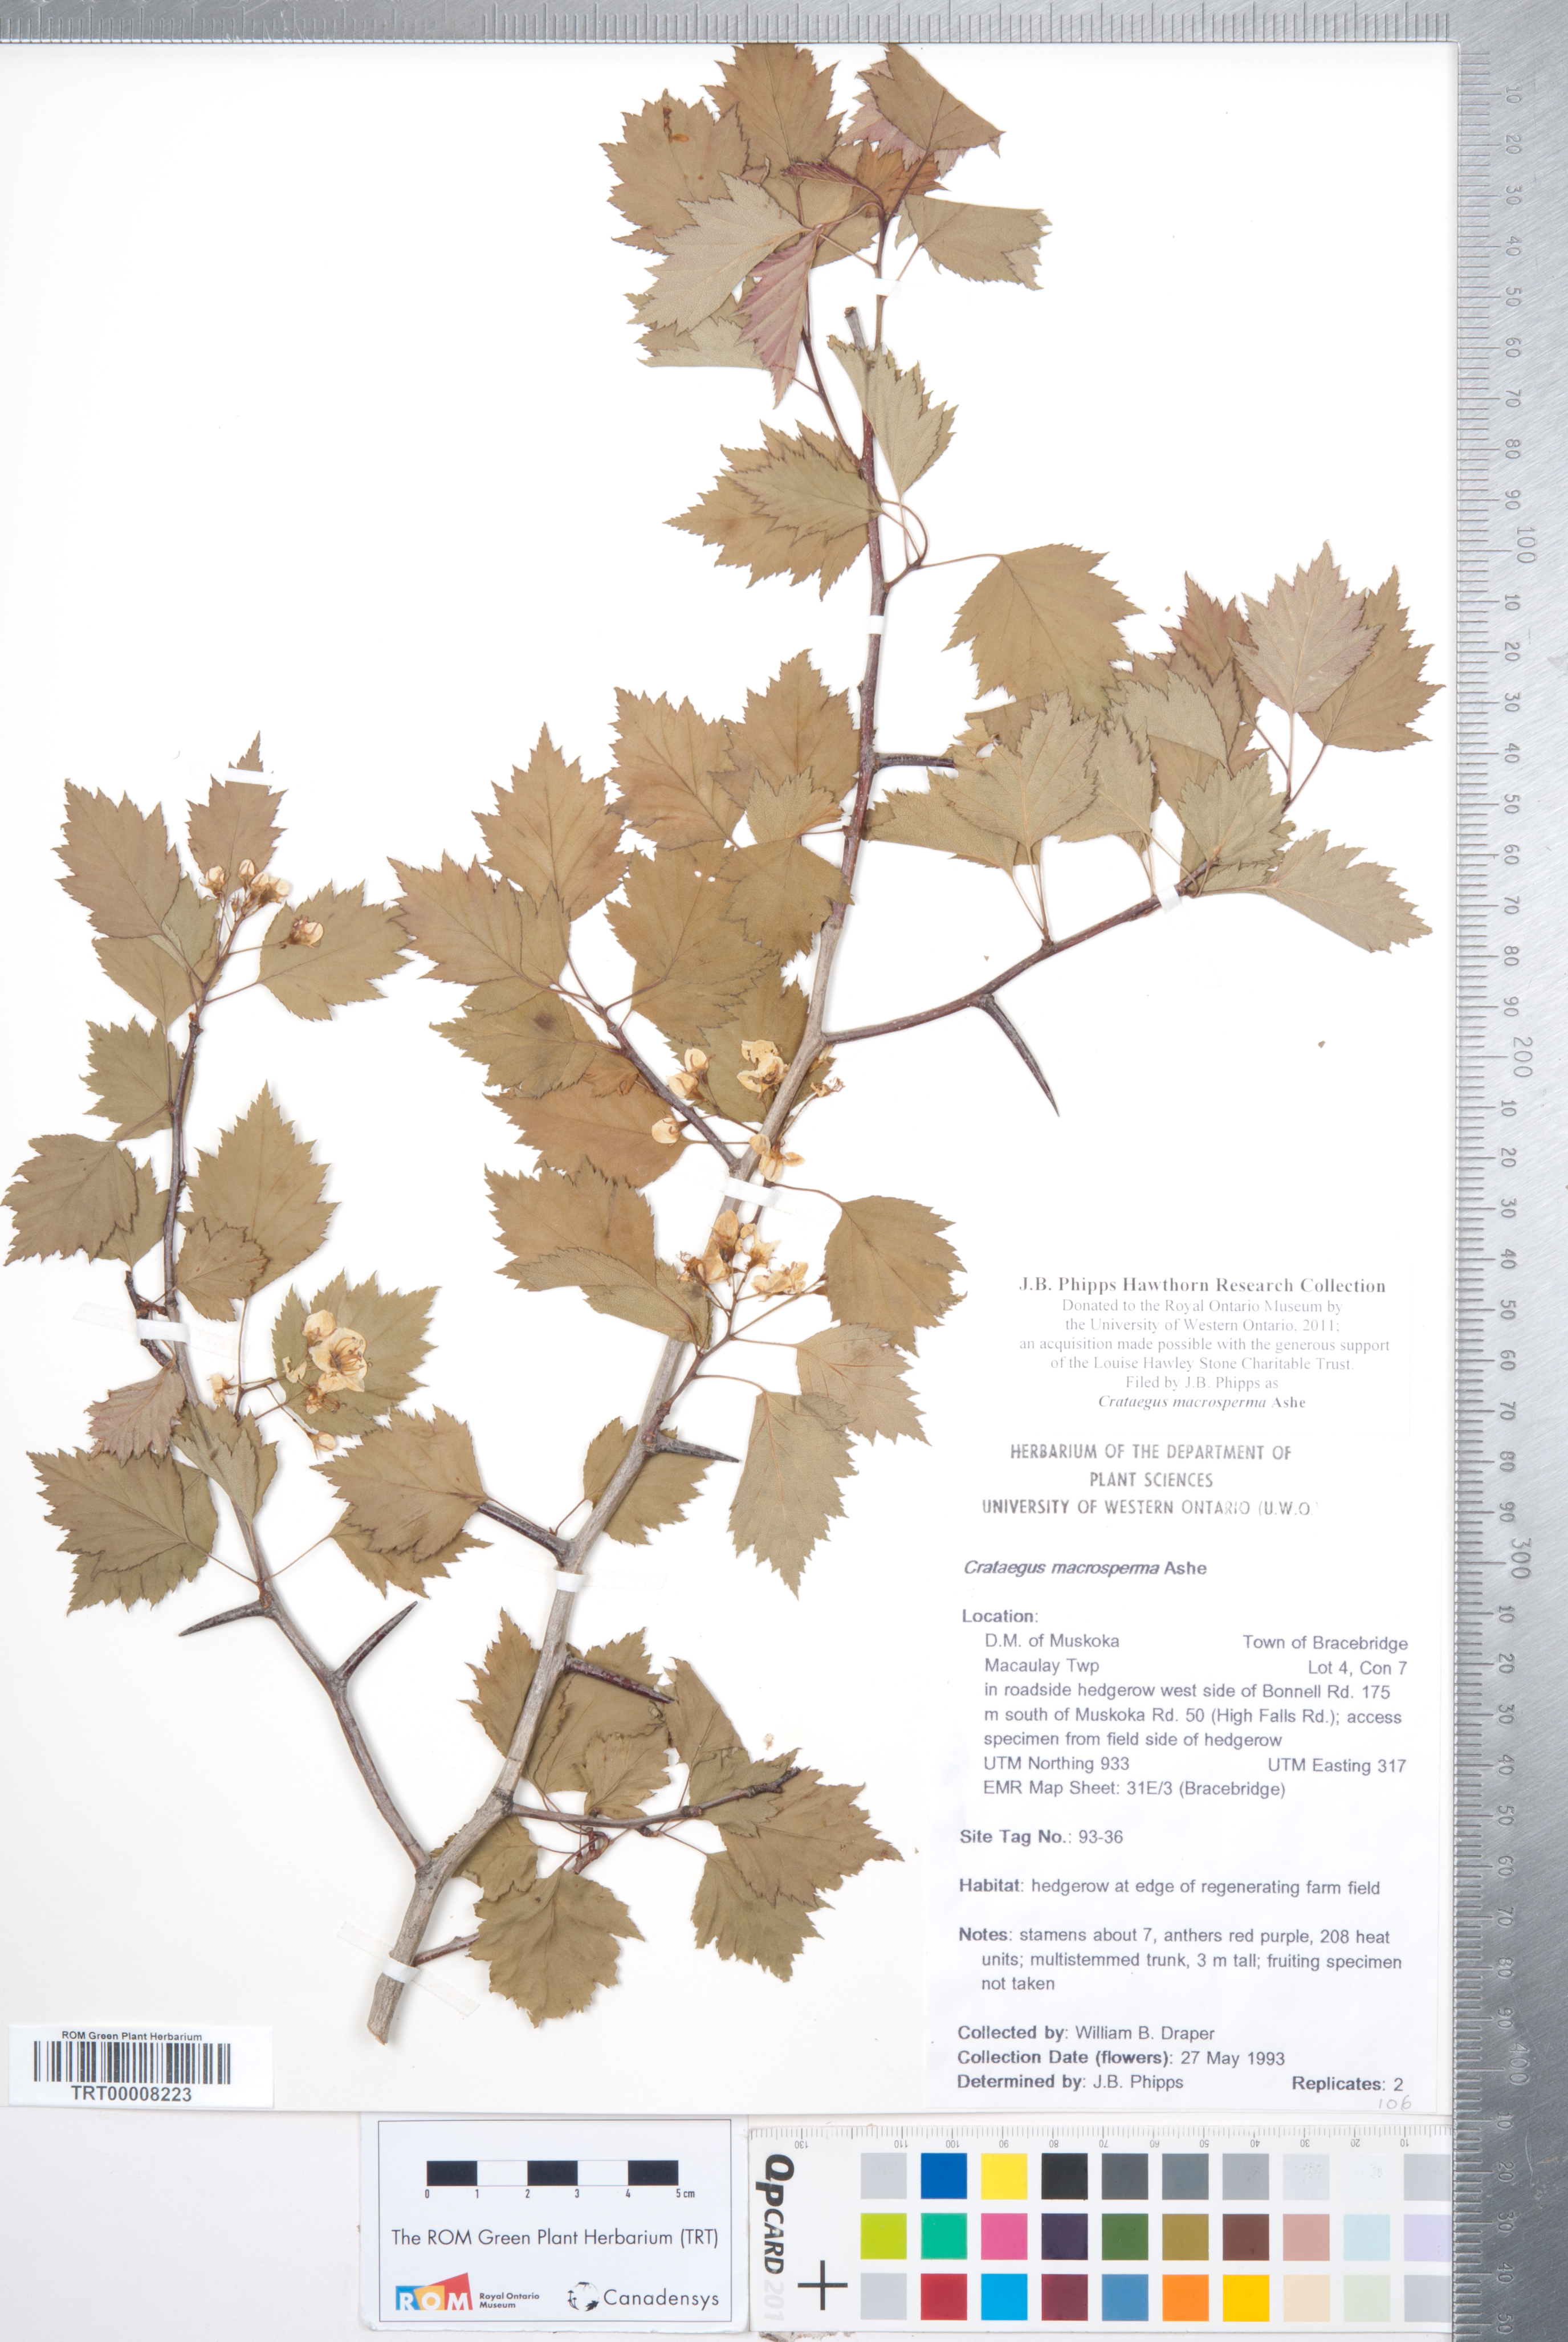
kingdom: Plantae
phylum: Tracheophyta
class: Magnoliopsida
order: Rosales
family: Rosaceae
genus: Crataegus
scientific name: Crataegus macrosperma
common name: Variable hawthorn
